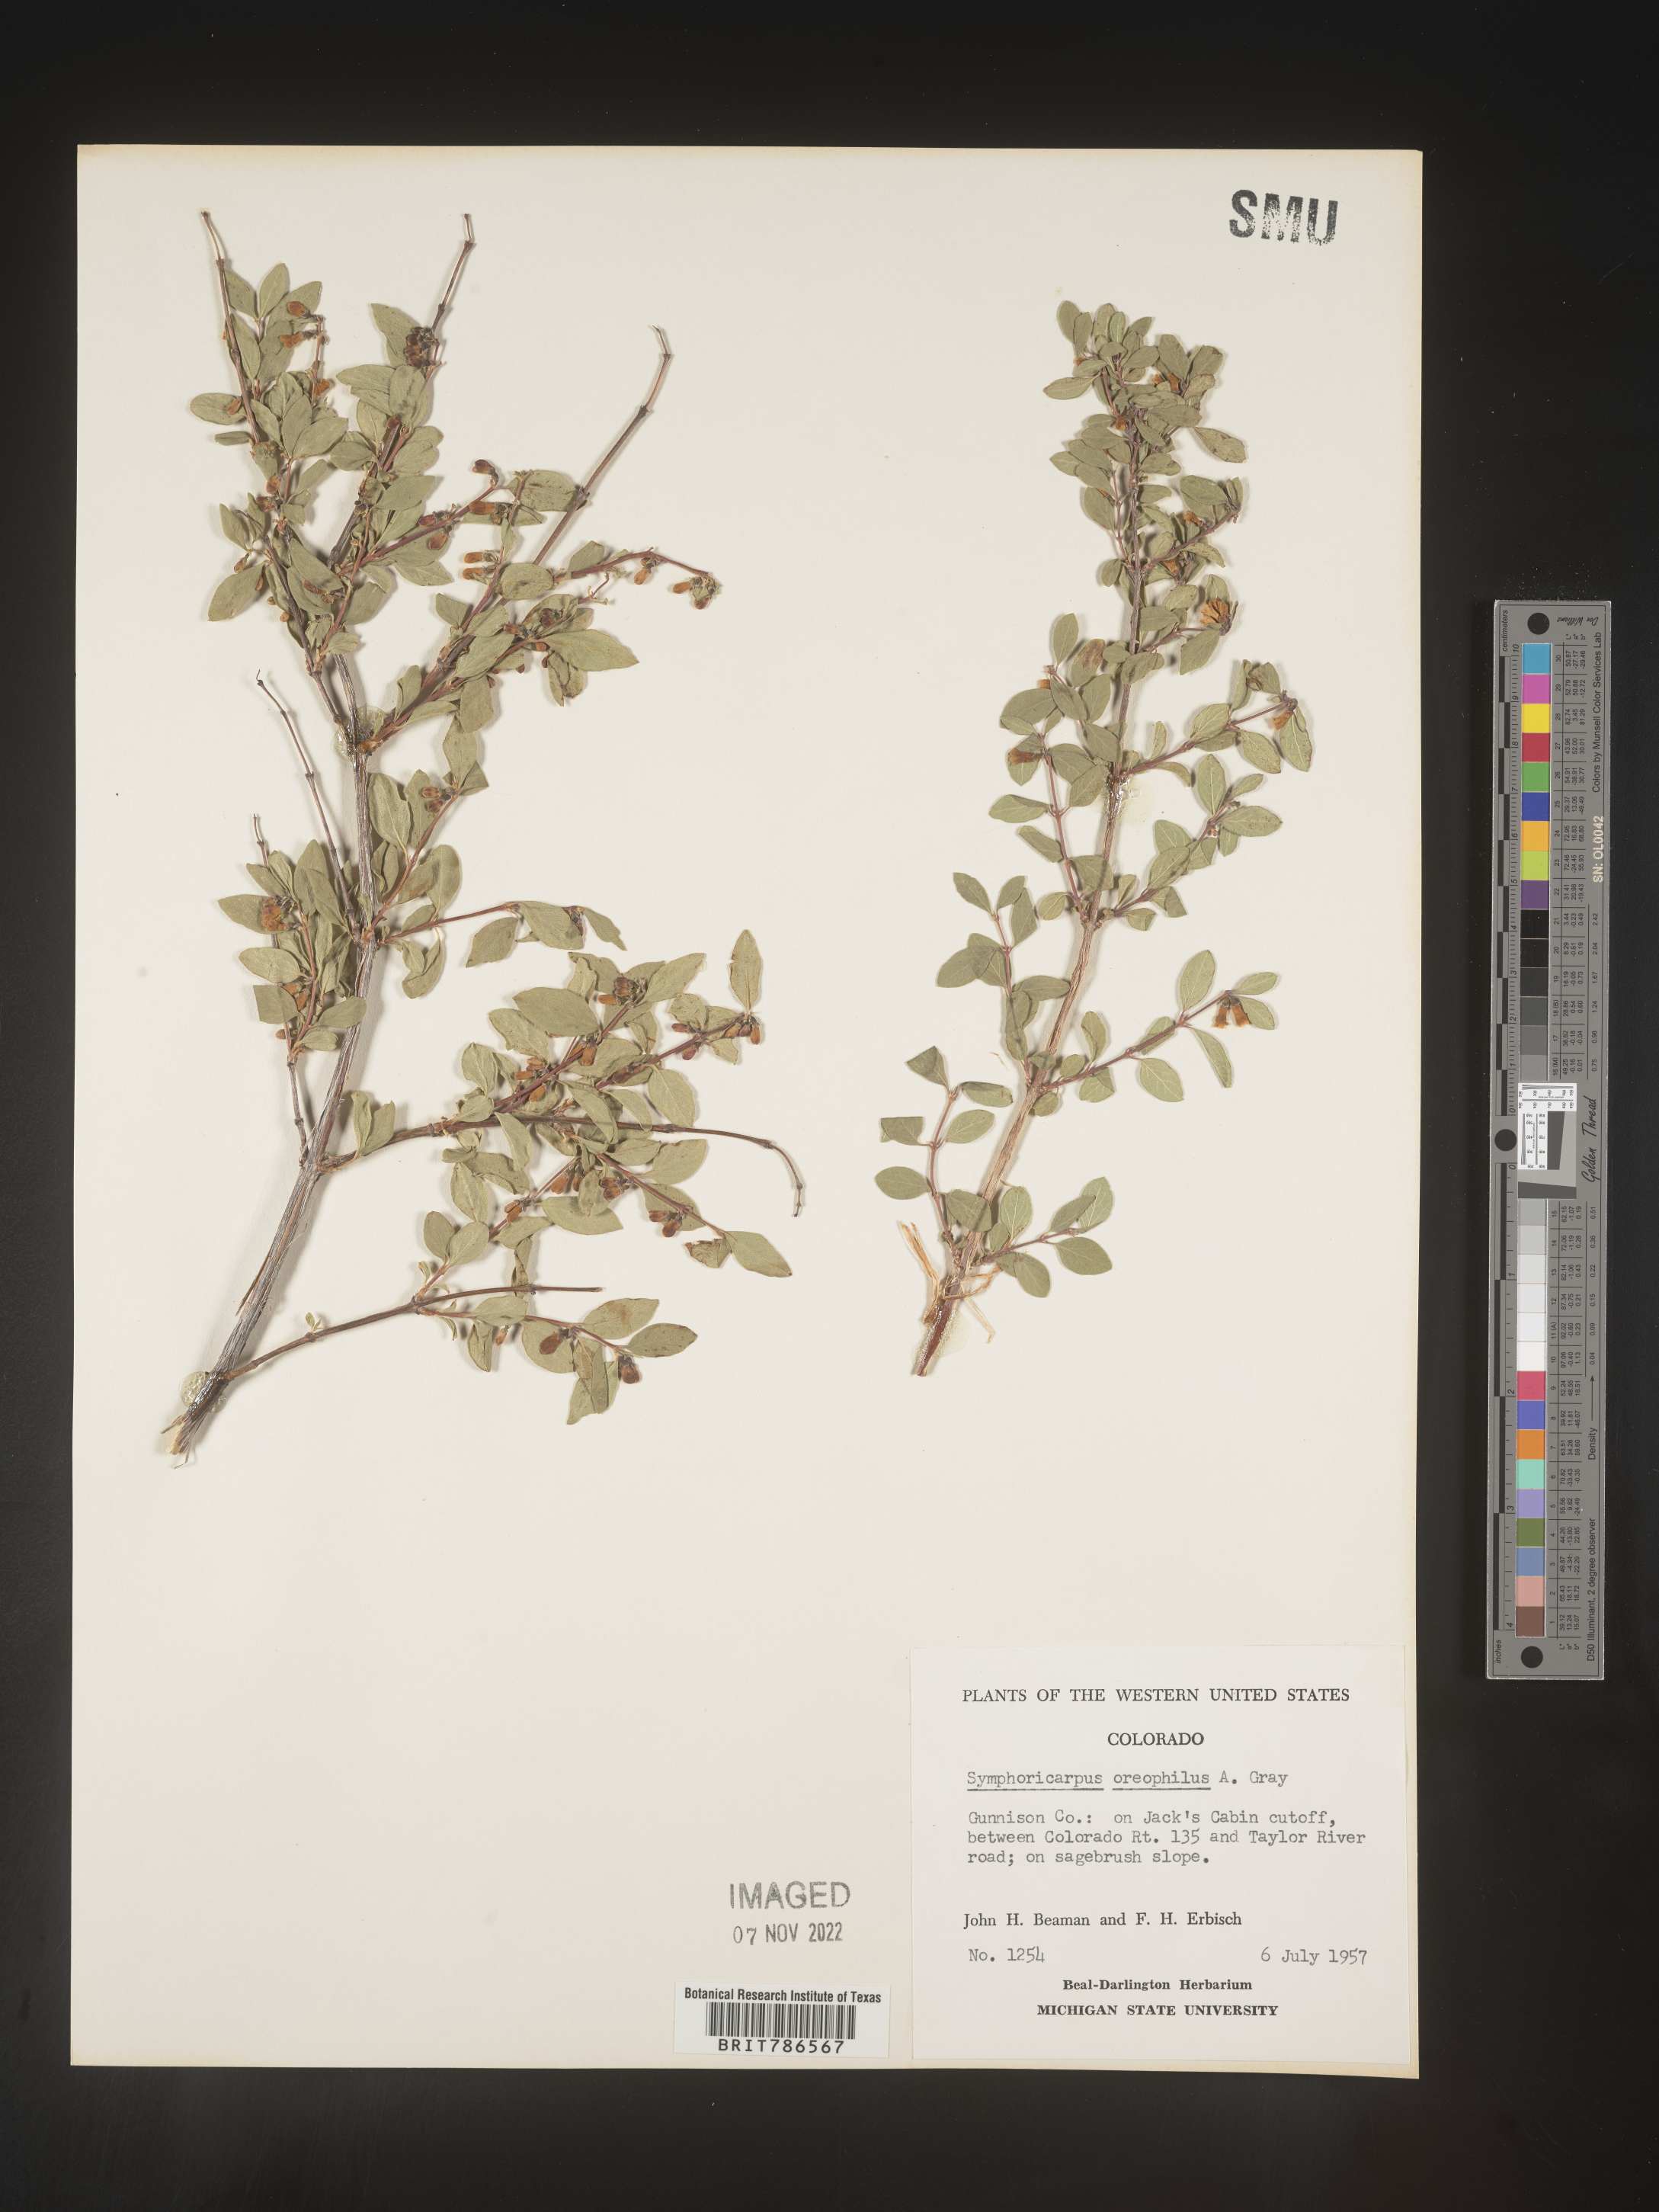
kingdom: Plantae
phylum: Tracheophyta
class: Magnoliopsida
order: Dipsacales
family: Caprifoliaceae
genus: Symphoricarpos
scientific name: Symphoricarpos oreophilus
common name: Mountain snowberry
